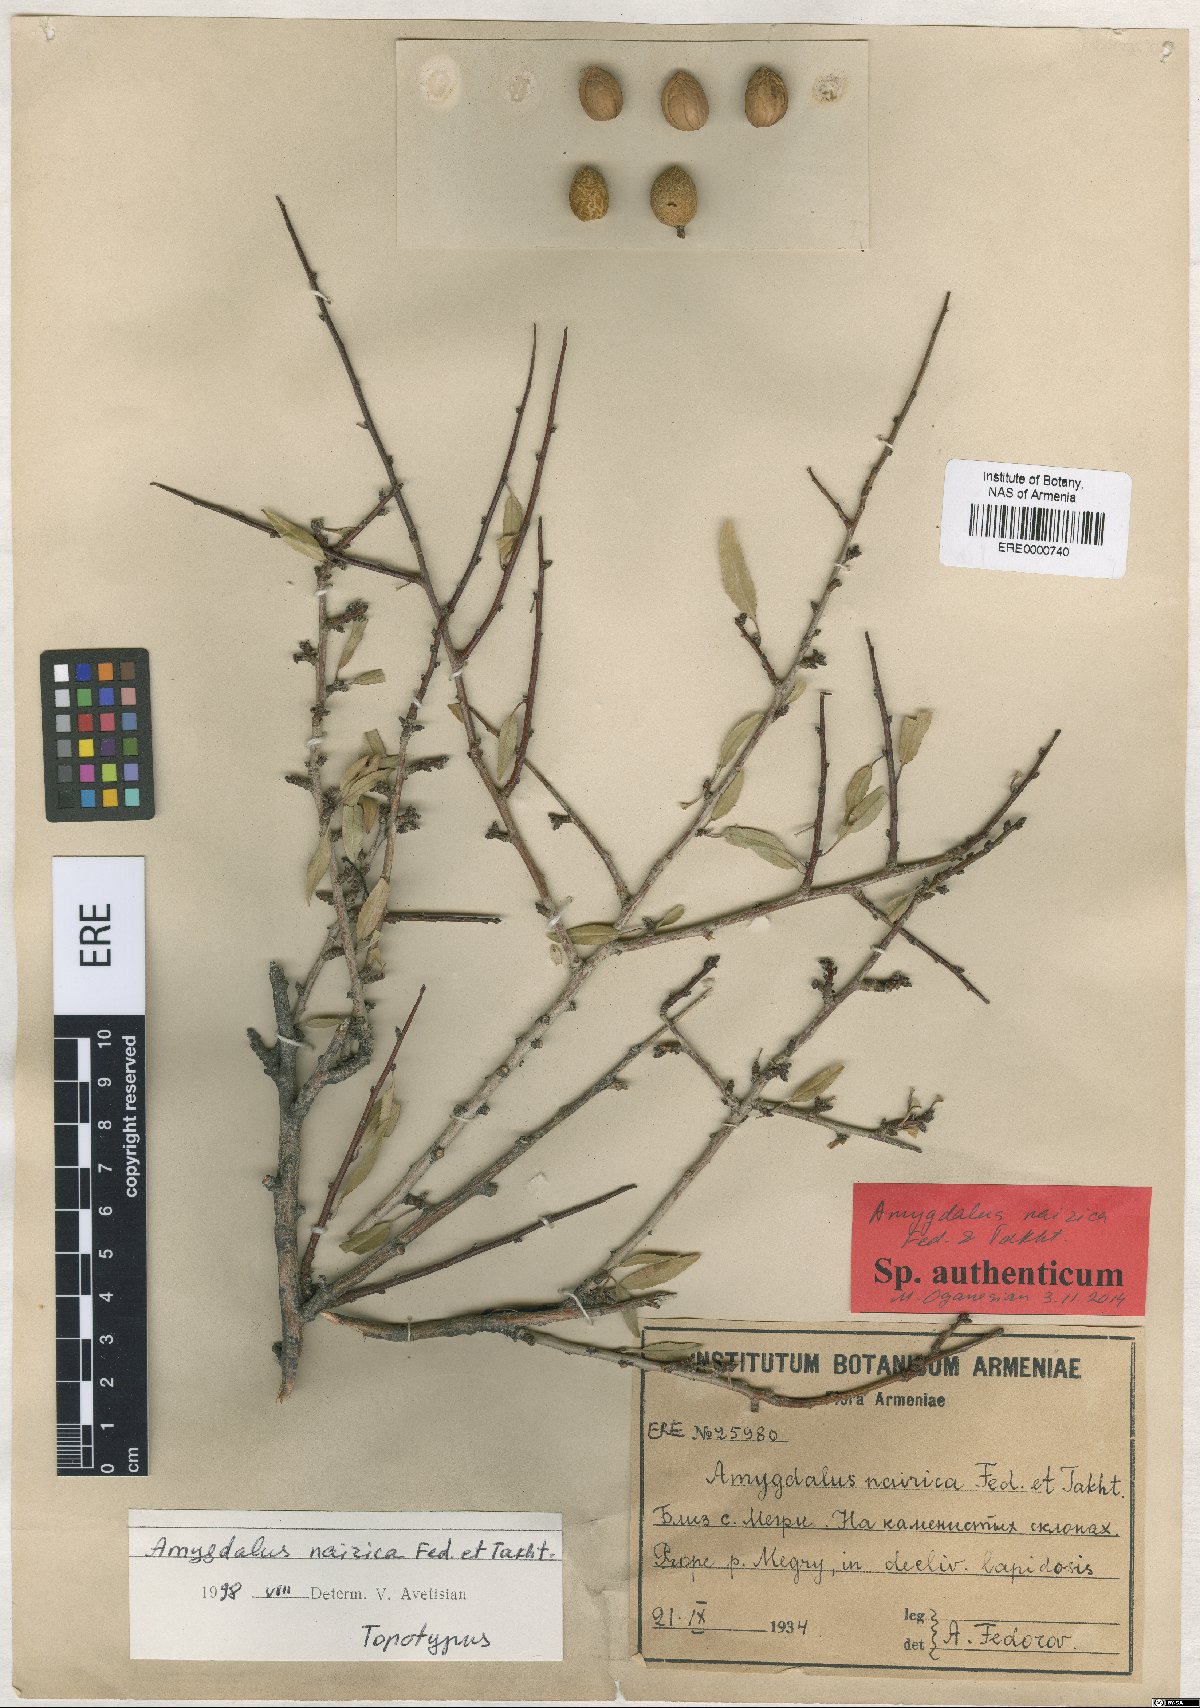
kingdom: Plantae
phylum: Tracheophyta
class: Magnoliopsida
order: Rosales
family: Rosaceae
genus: Prunus
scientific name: Prunus nairica
